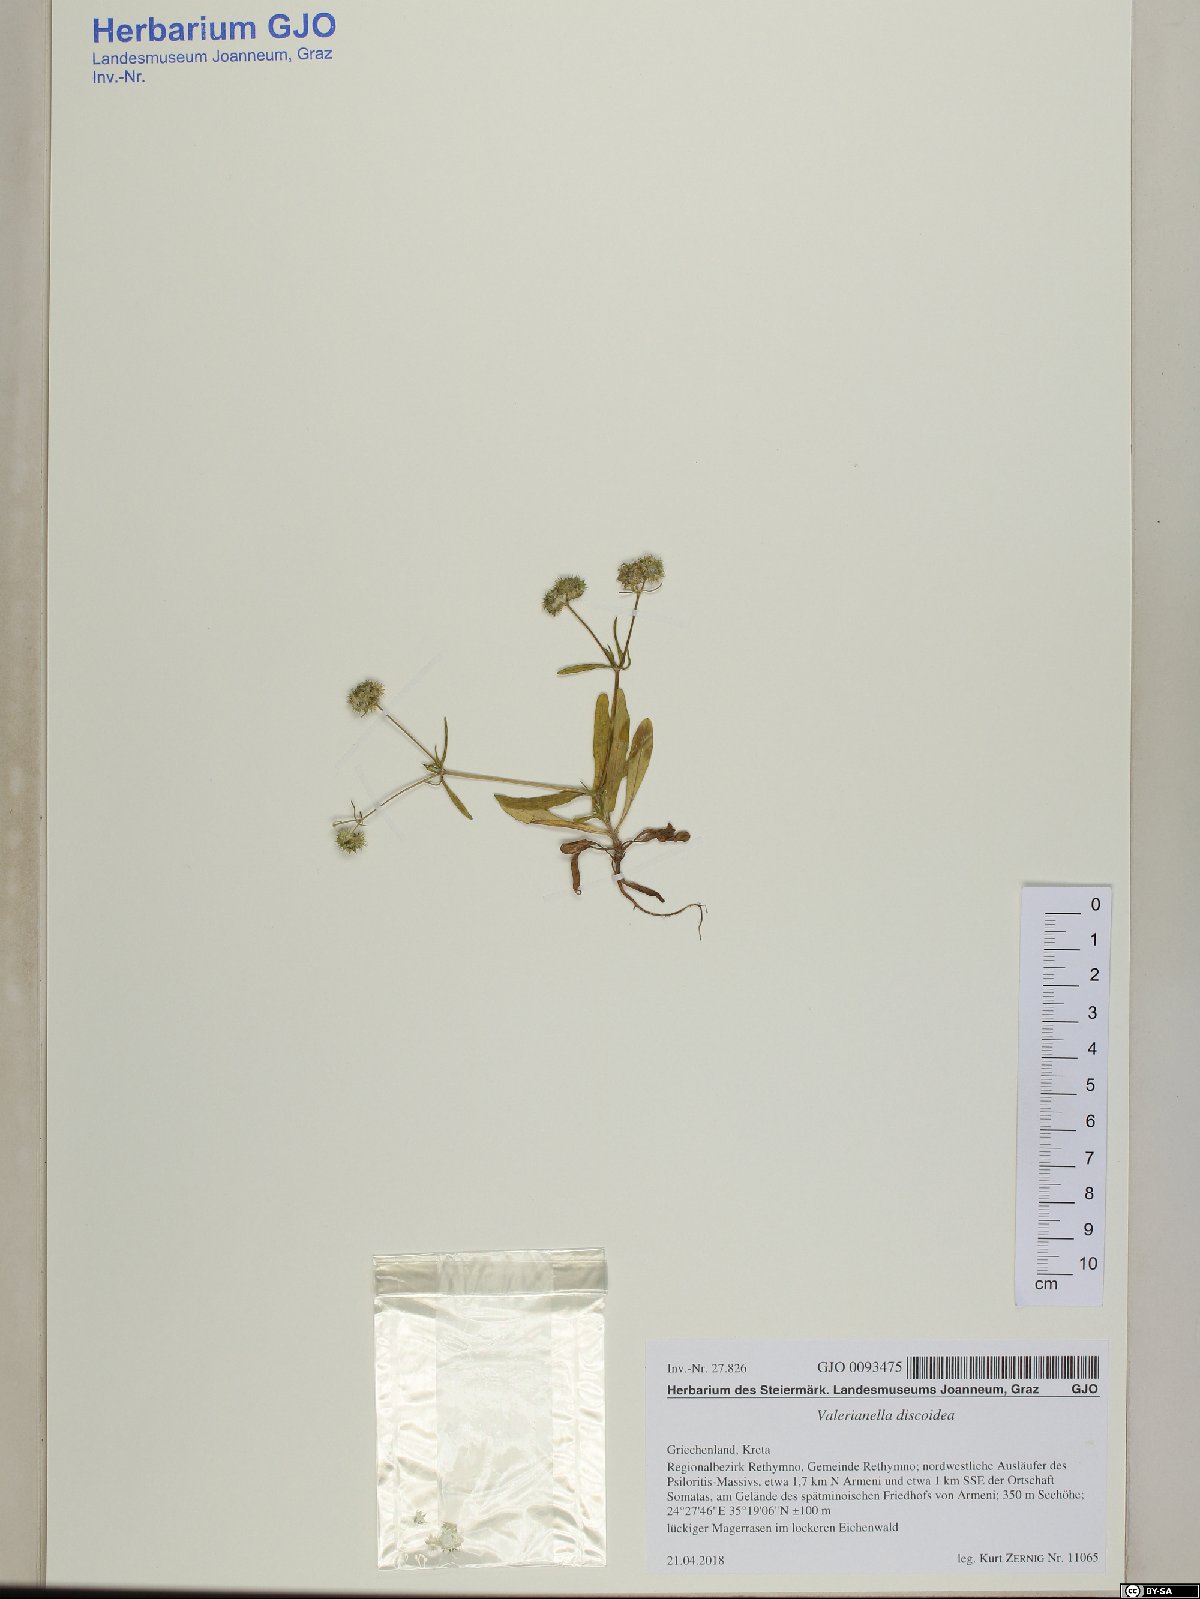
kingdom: Plantae
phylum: Tracheophyta
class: Magnoliopsida
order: Dipsacales
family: Caprifoliaceae
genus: Valerianella
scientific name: Valerianella discoidea
